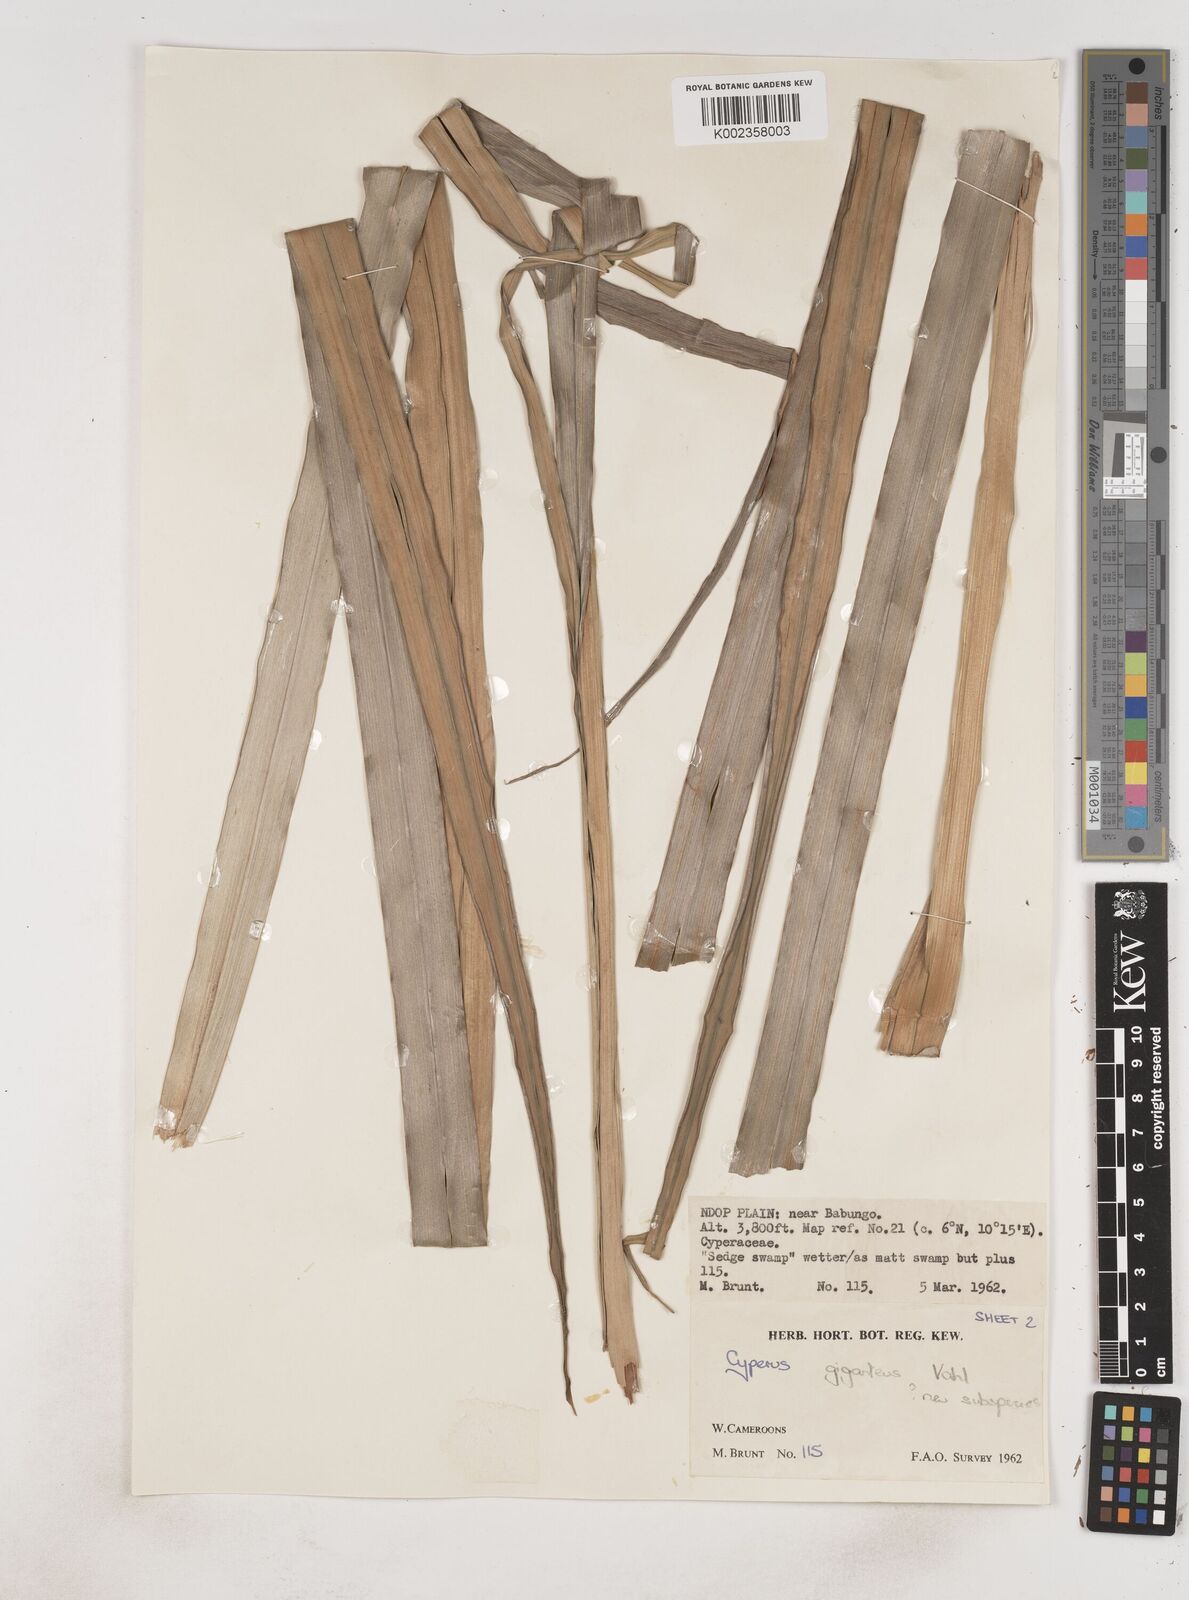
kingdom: Plantae
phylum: Tracheophyta
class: Liliopsida
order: Poales
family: Cyperaceae
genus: Cyperus
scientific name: Cyperus
